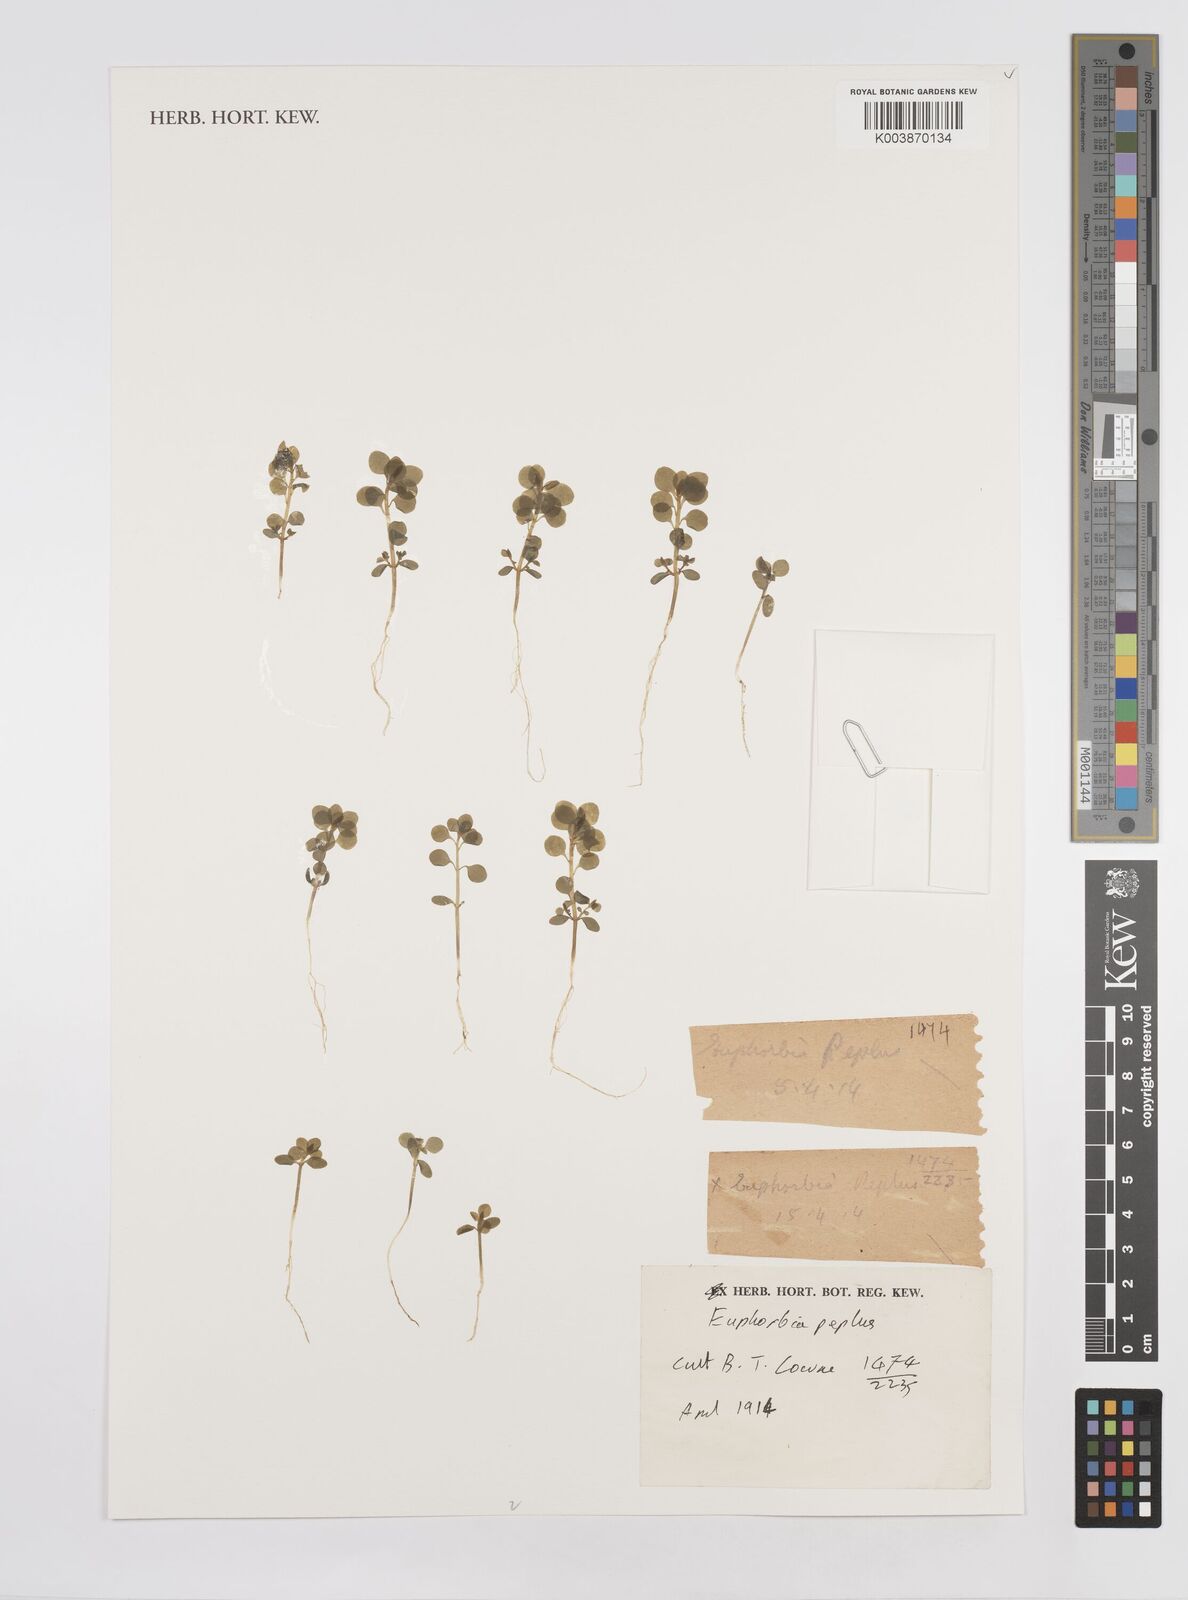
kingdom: Plantae
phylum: Tracheophyta
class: Magnoliopsida
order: Malpighiales
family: Euphorbiaceae
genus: Euphorbia
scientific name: Euphorbia peplus
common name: Petty spurge
